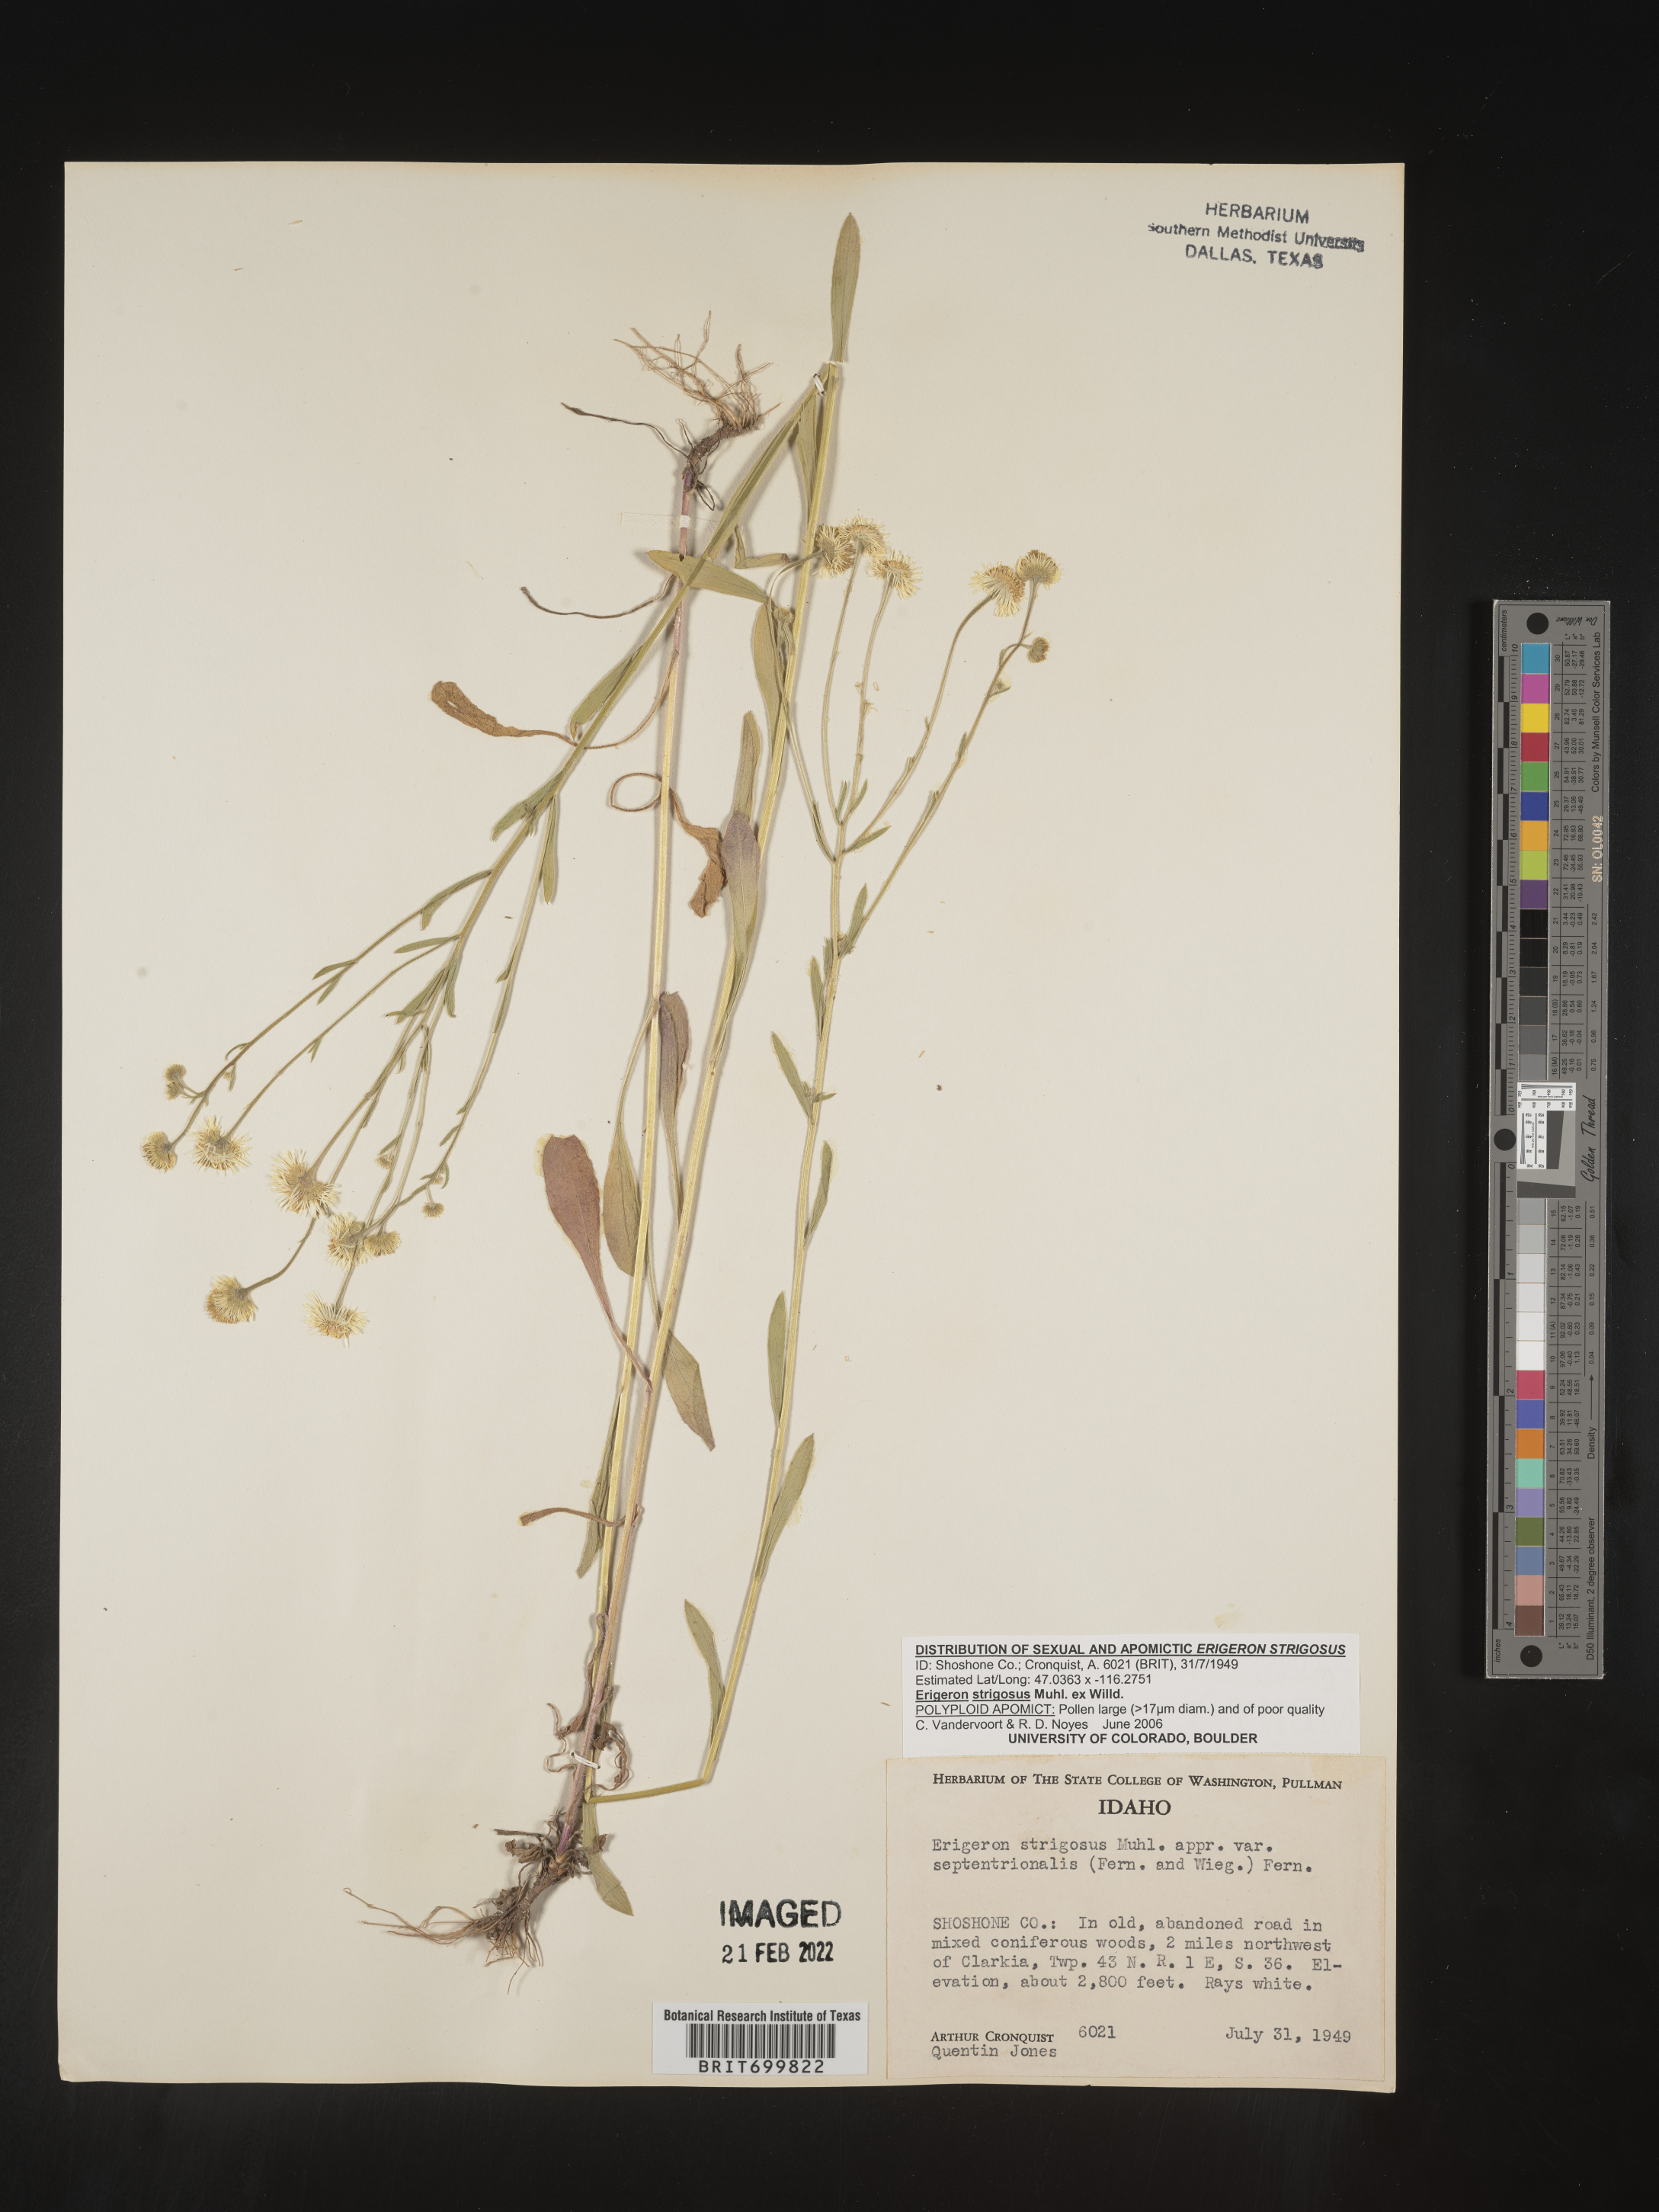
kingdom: Plantae
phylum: Tracheophyta
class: Magnoliopsida
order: Asterales
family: Asteraceae
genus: Erigeron
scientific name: Erigeron strigosus
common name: Common eastern fleabane
